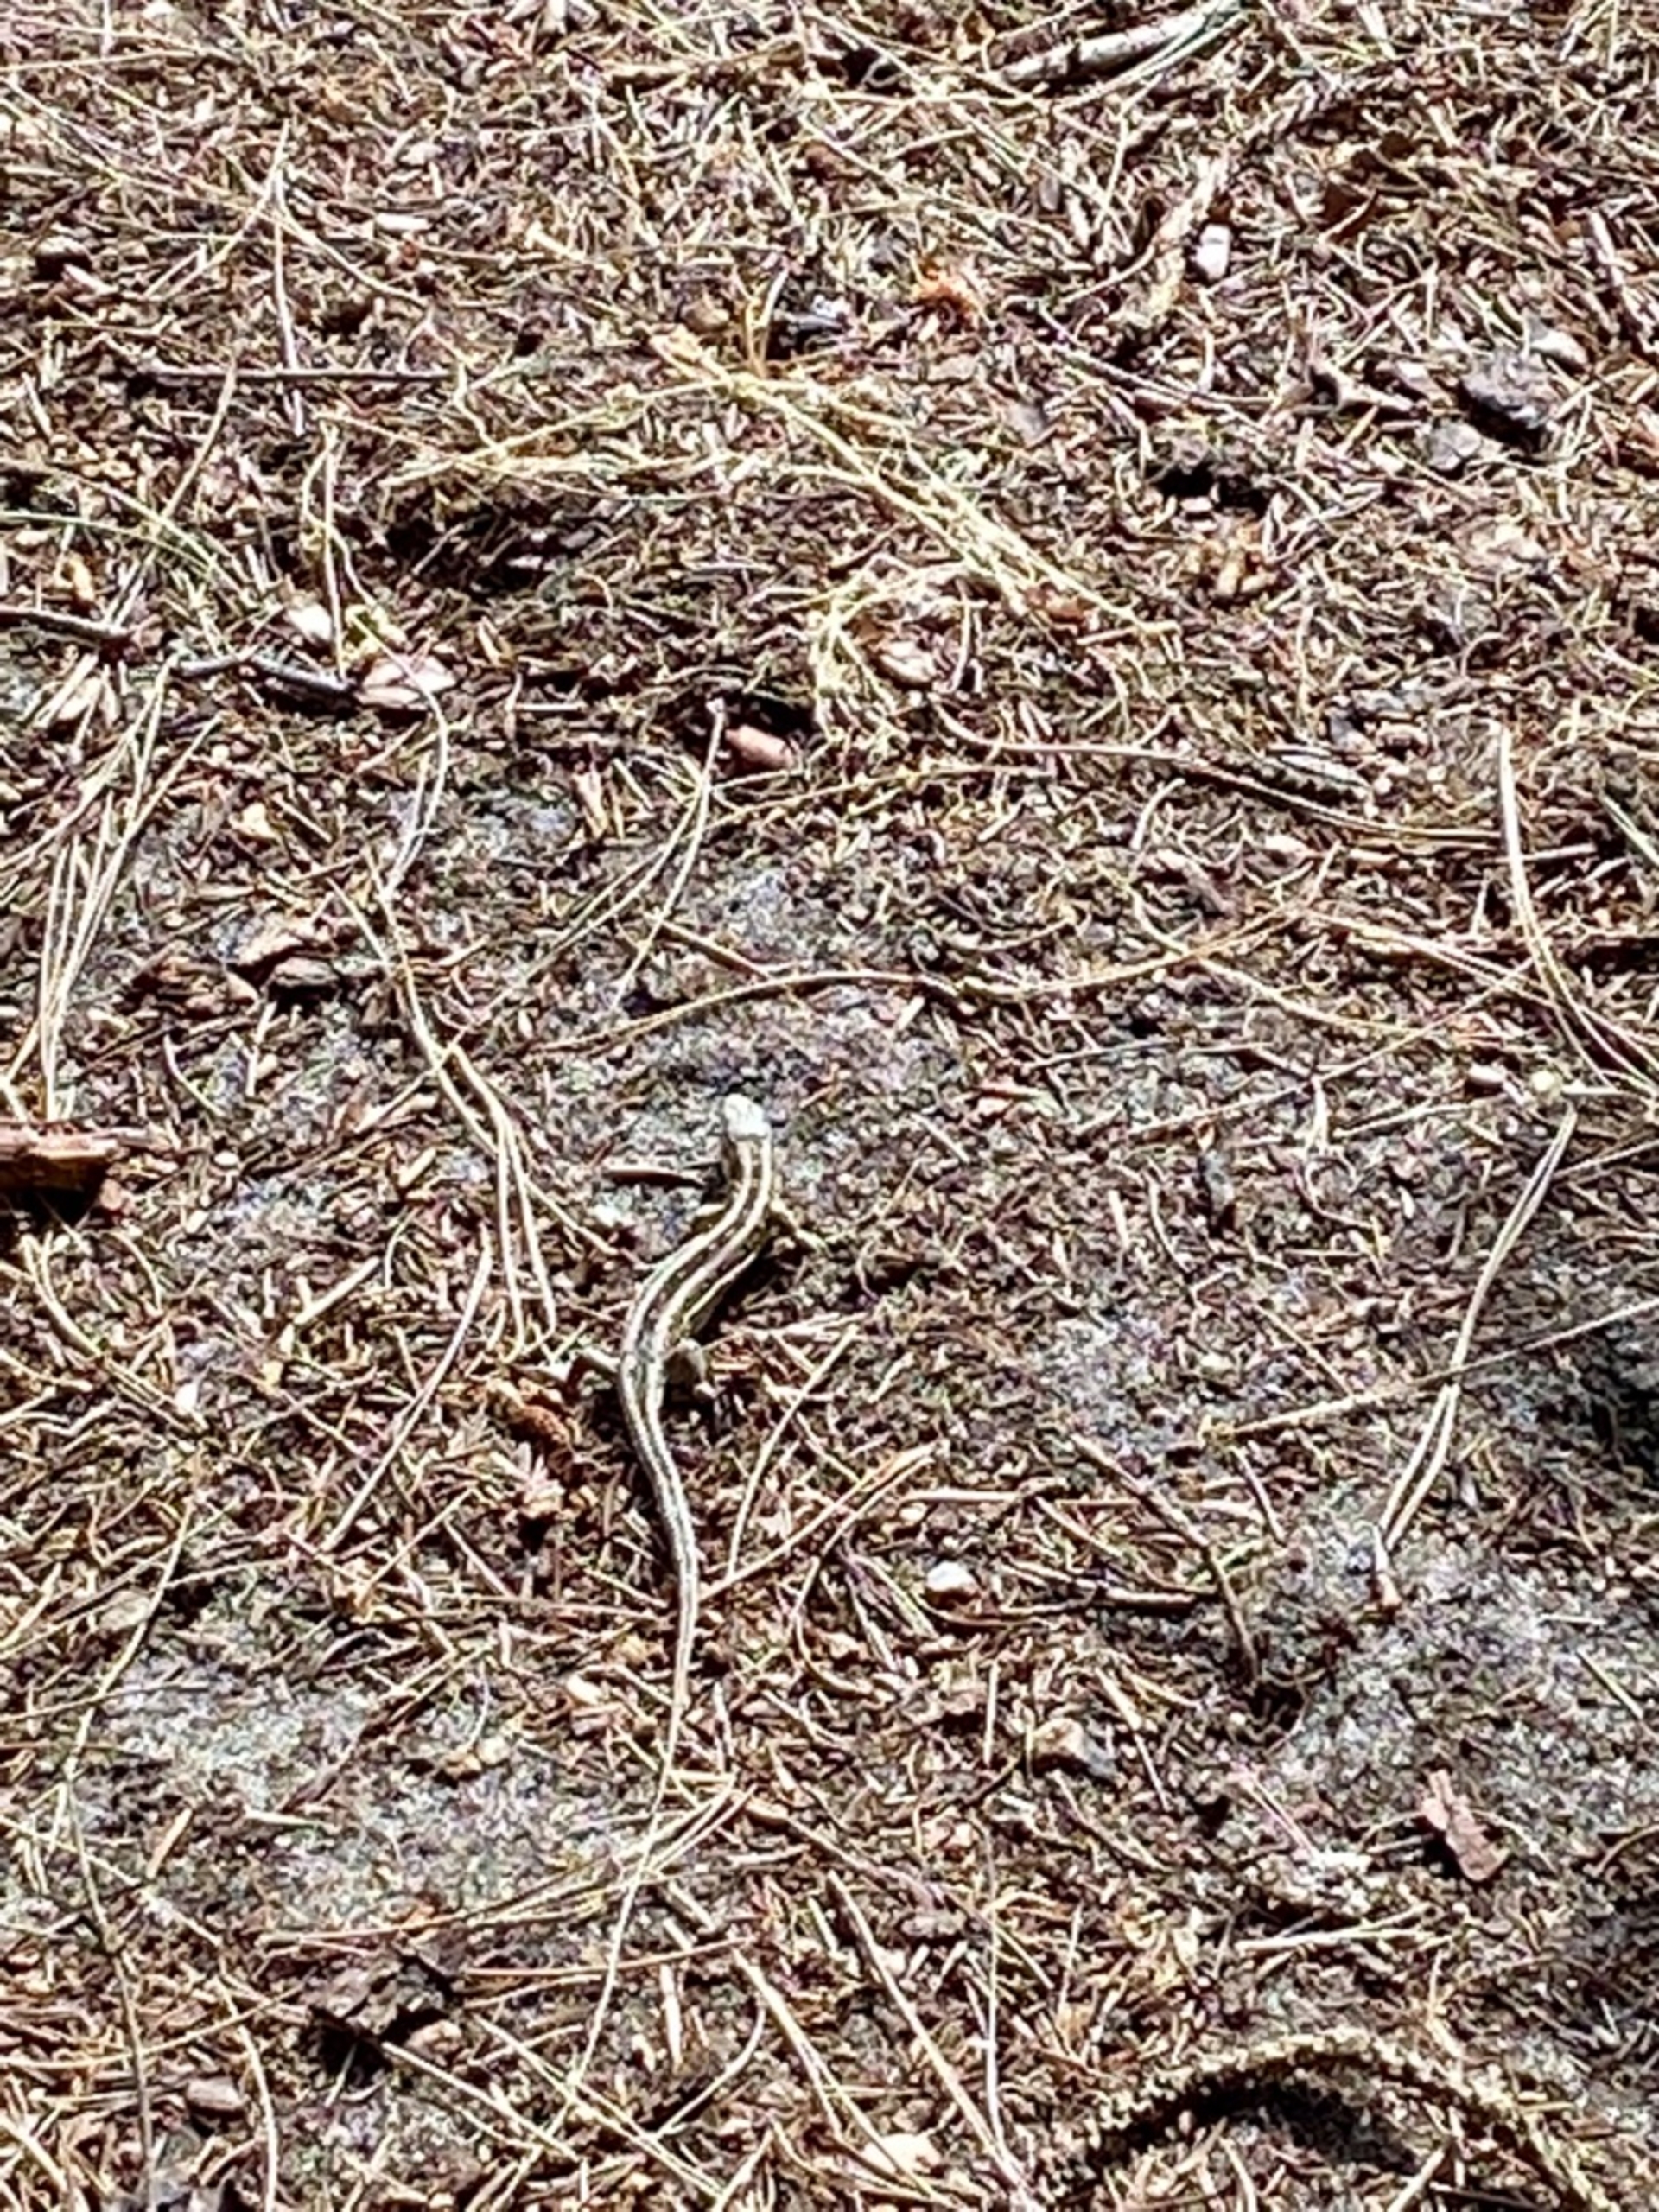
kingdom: Animalia
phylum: Chordata
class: Squamata
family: Lacertidae
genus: Lacerta
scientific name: Lacerta agilis
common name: Markfirben
